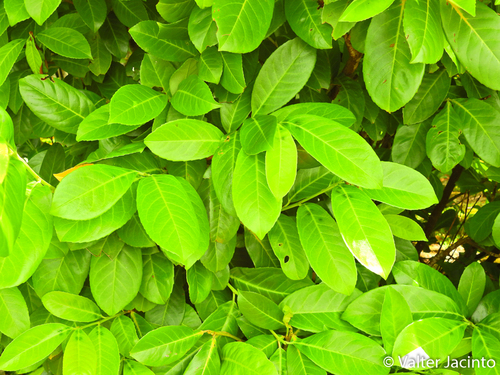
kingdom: Plantae
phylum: Tracheophyta
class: Magnoliopsida
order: Rosales
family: Rosaceae
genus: Prunus
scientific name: Prunus laurocerasus
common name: Cherry laurel
